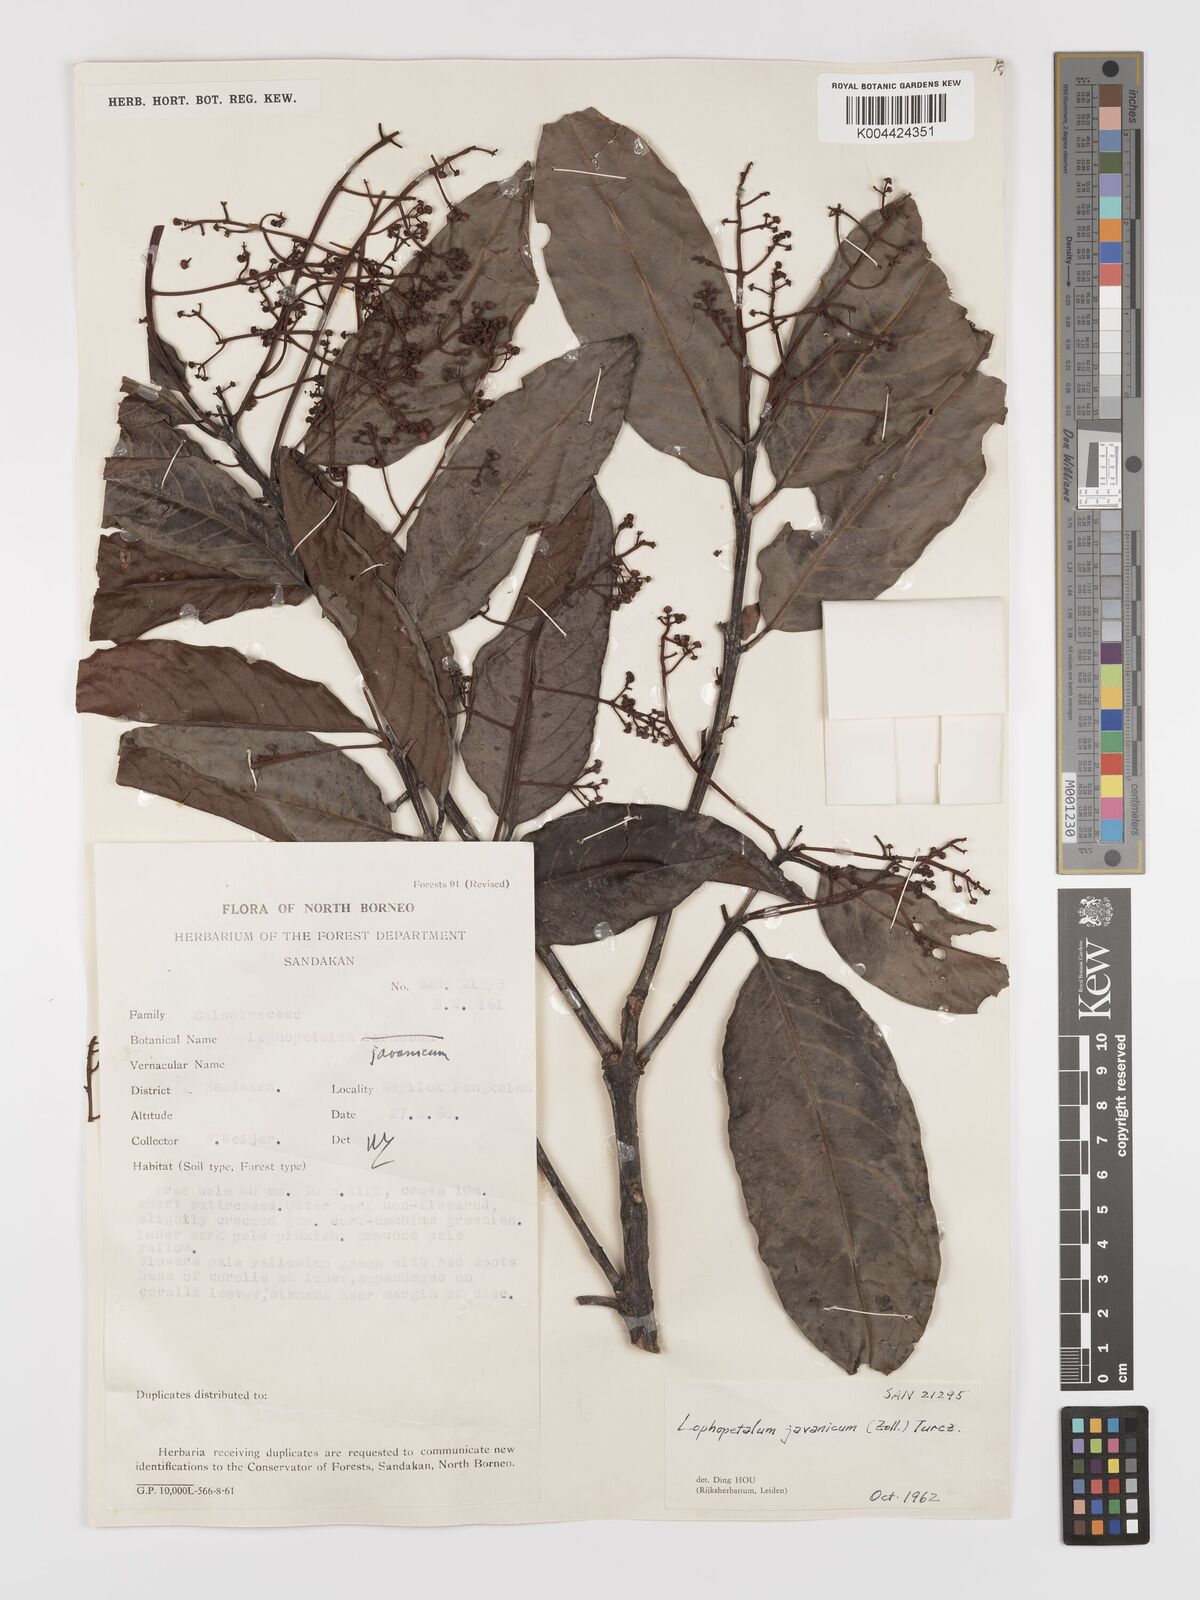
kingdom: Plantae
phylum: Tracheophyta
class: Magnoliopsida
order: Celastrales
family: Celastraceae
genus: Lophopetalum
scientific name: Lophopetalum javanicum
